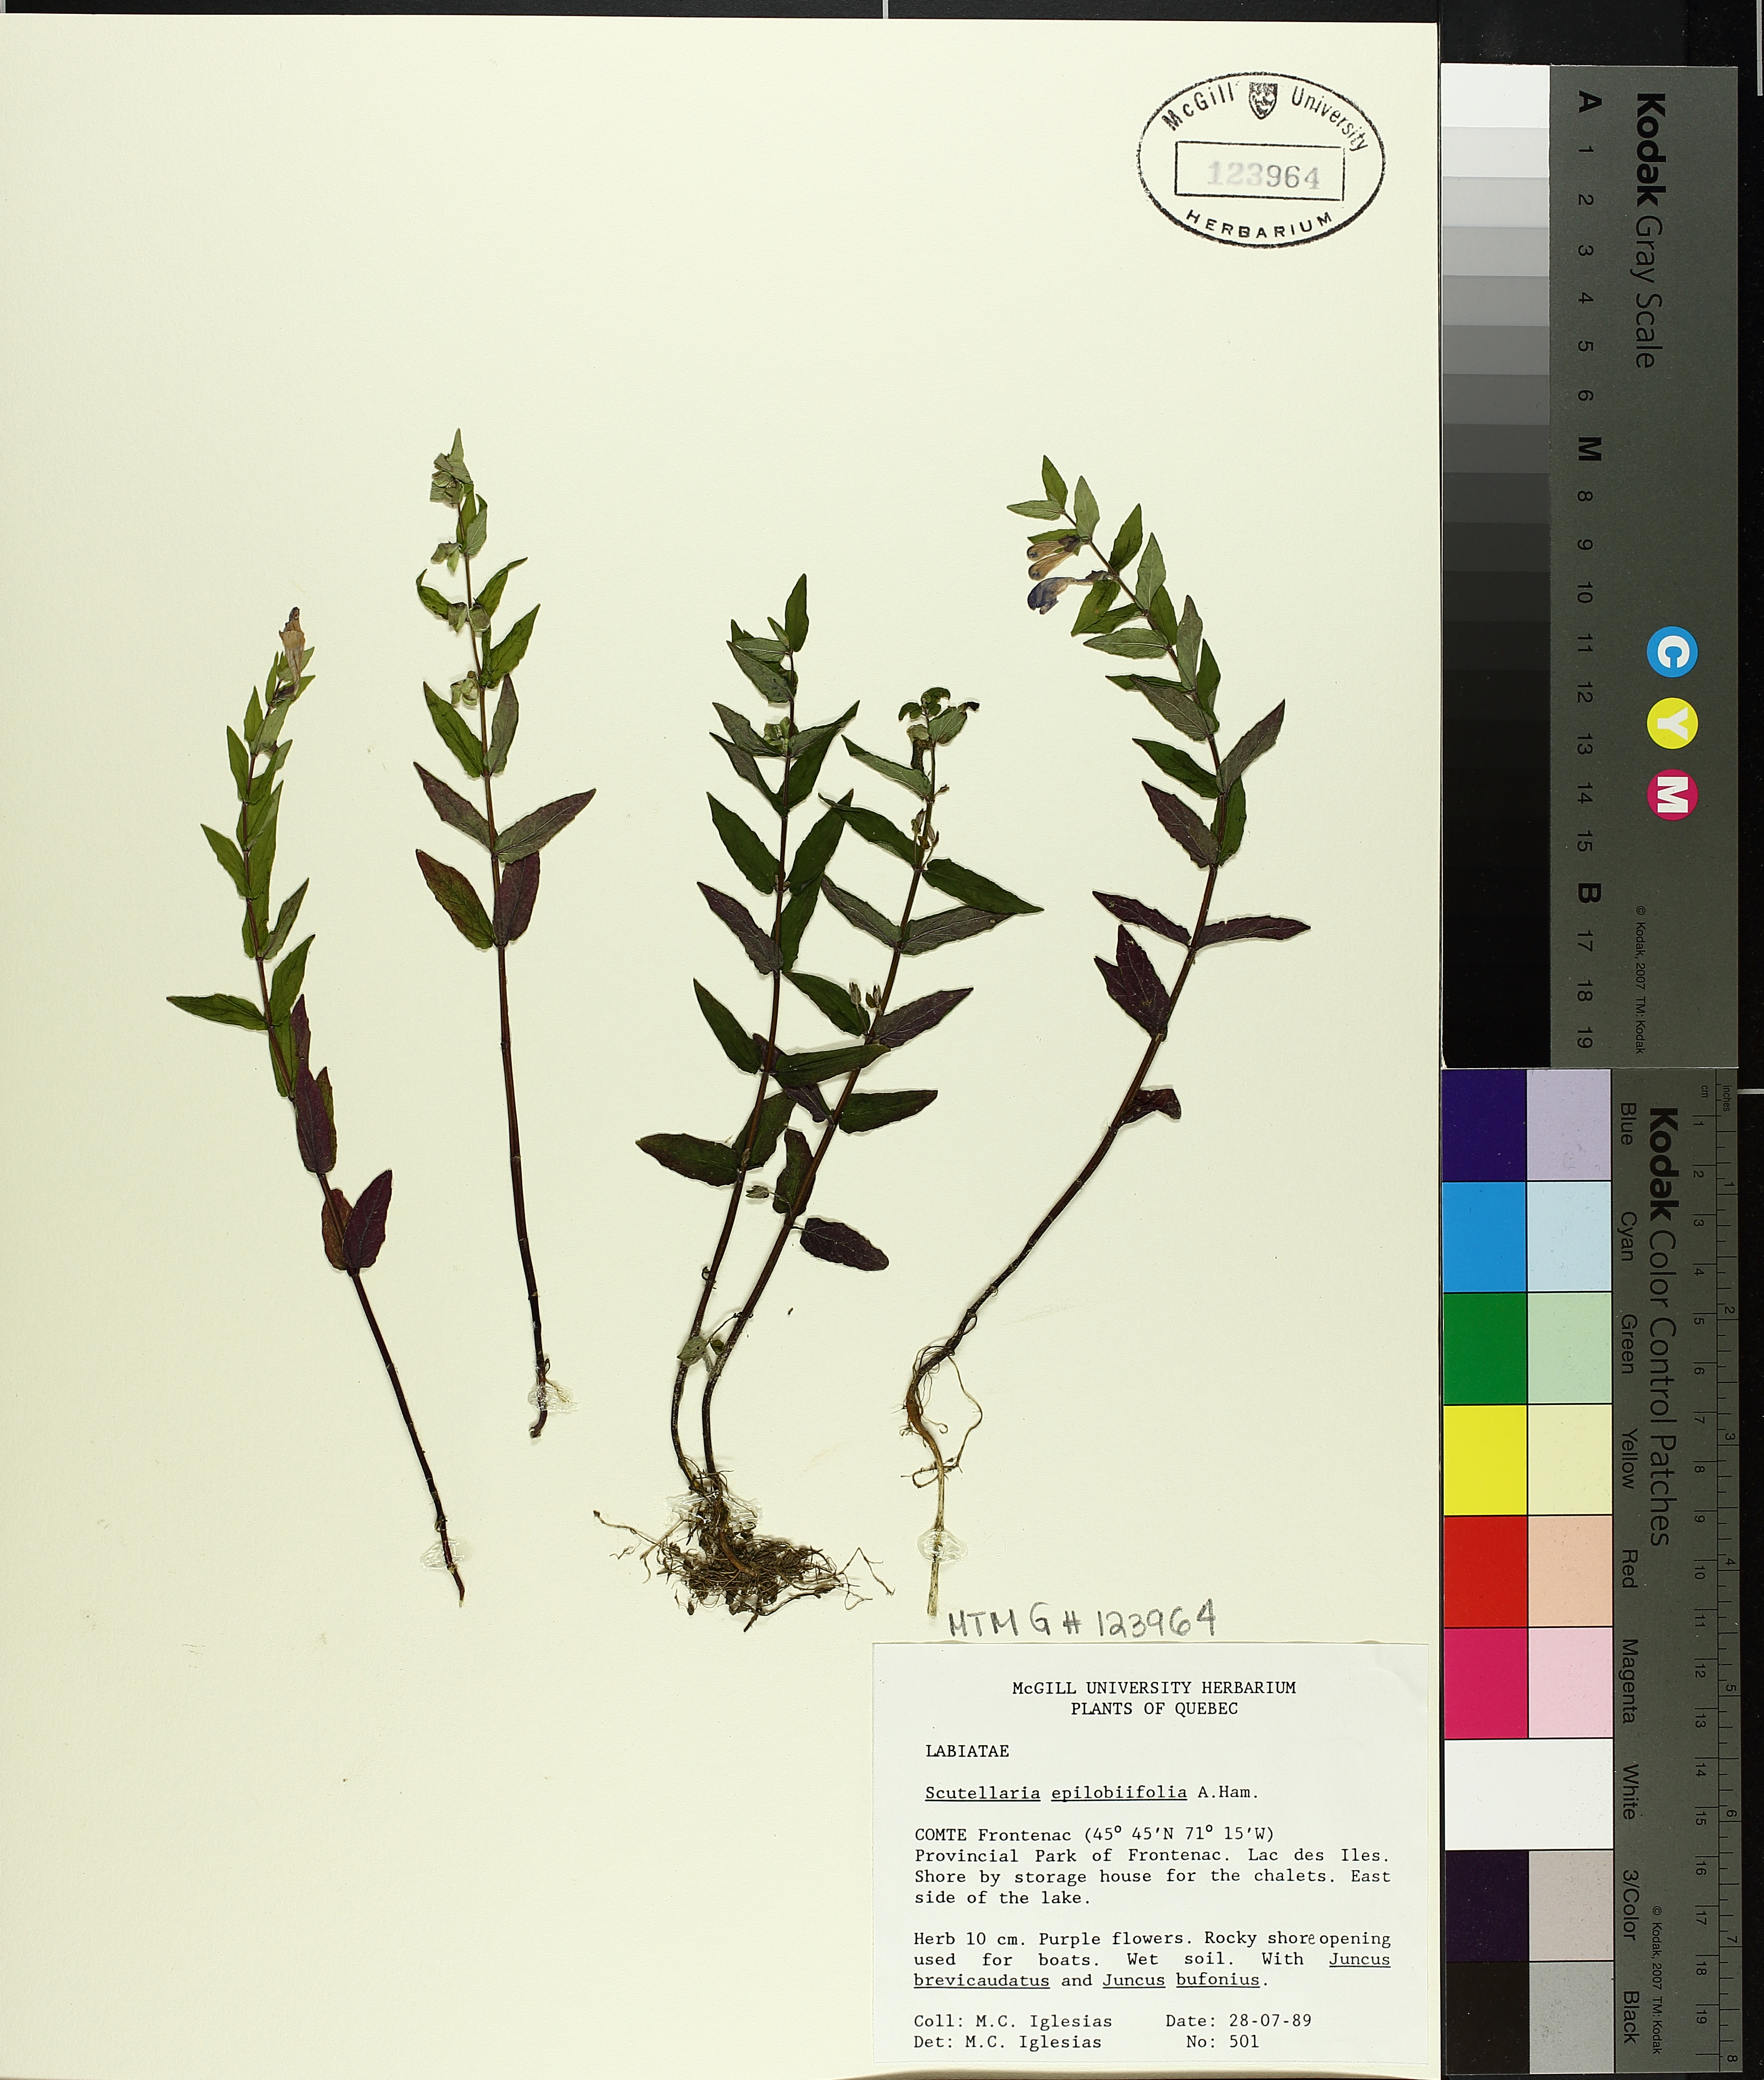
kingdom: Plantae
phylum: Tracheophyta
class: Magnoliopsida
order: Lamiales
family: Lamiaceae
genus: Scutellaria
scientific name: Scutellaria galericulata
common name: Skullcap
